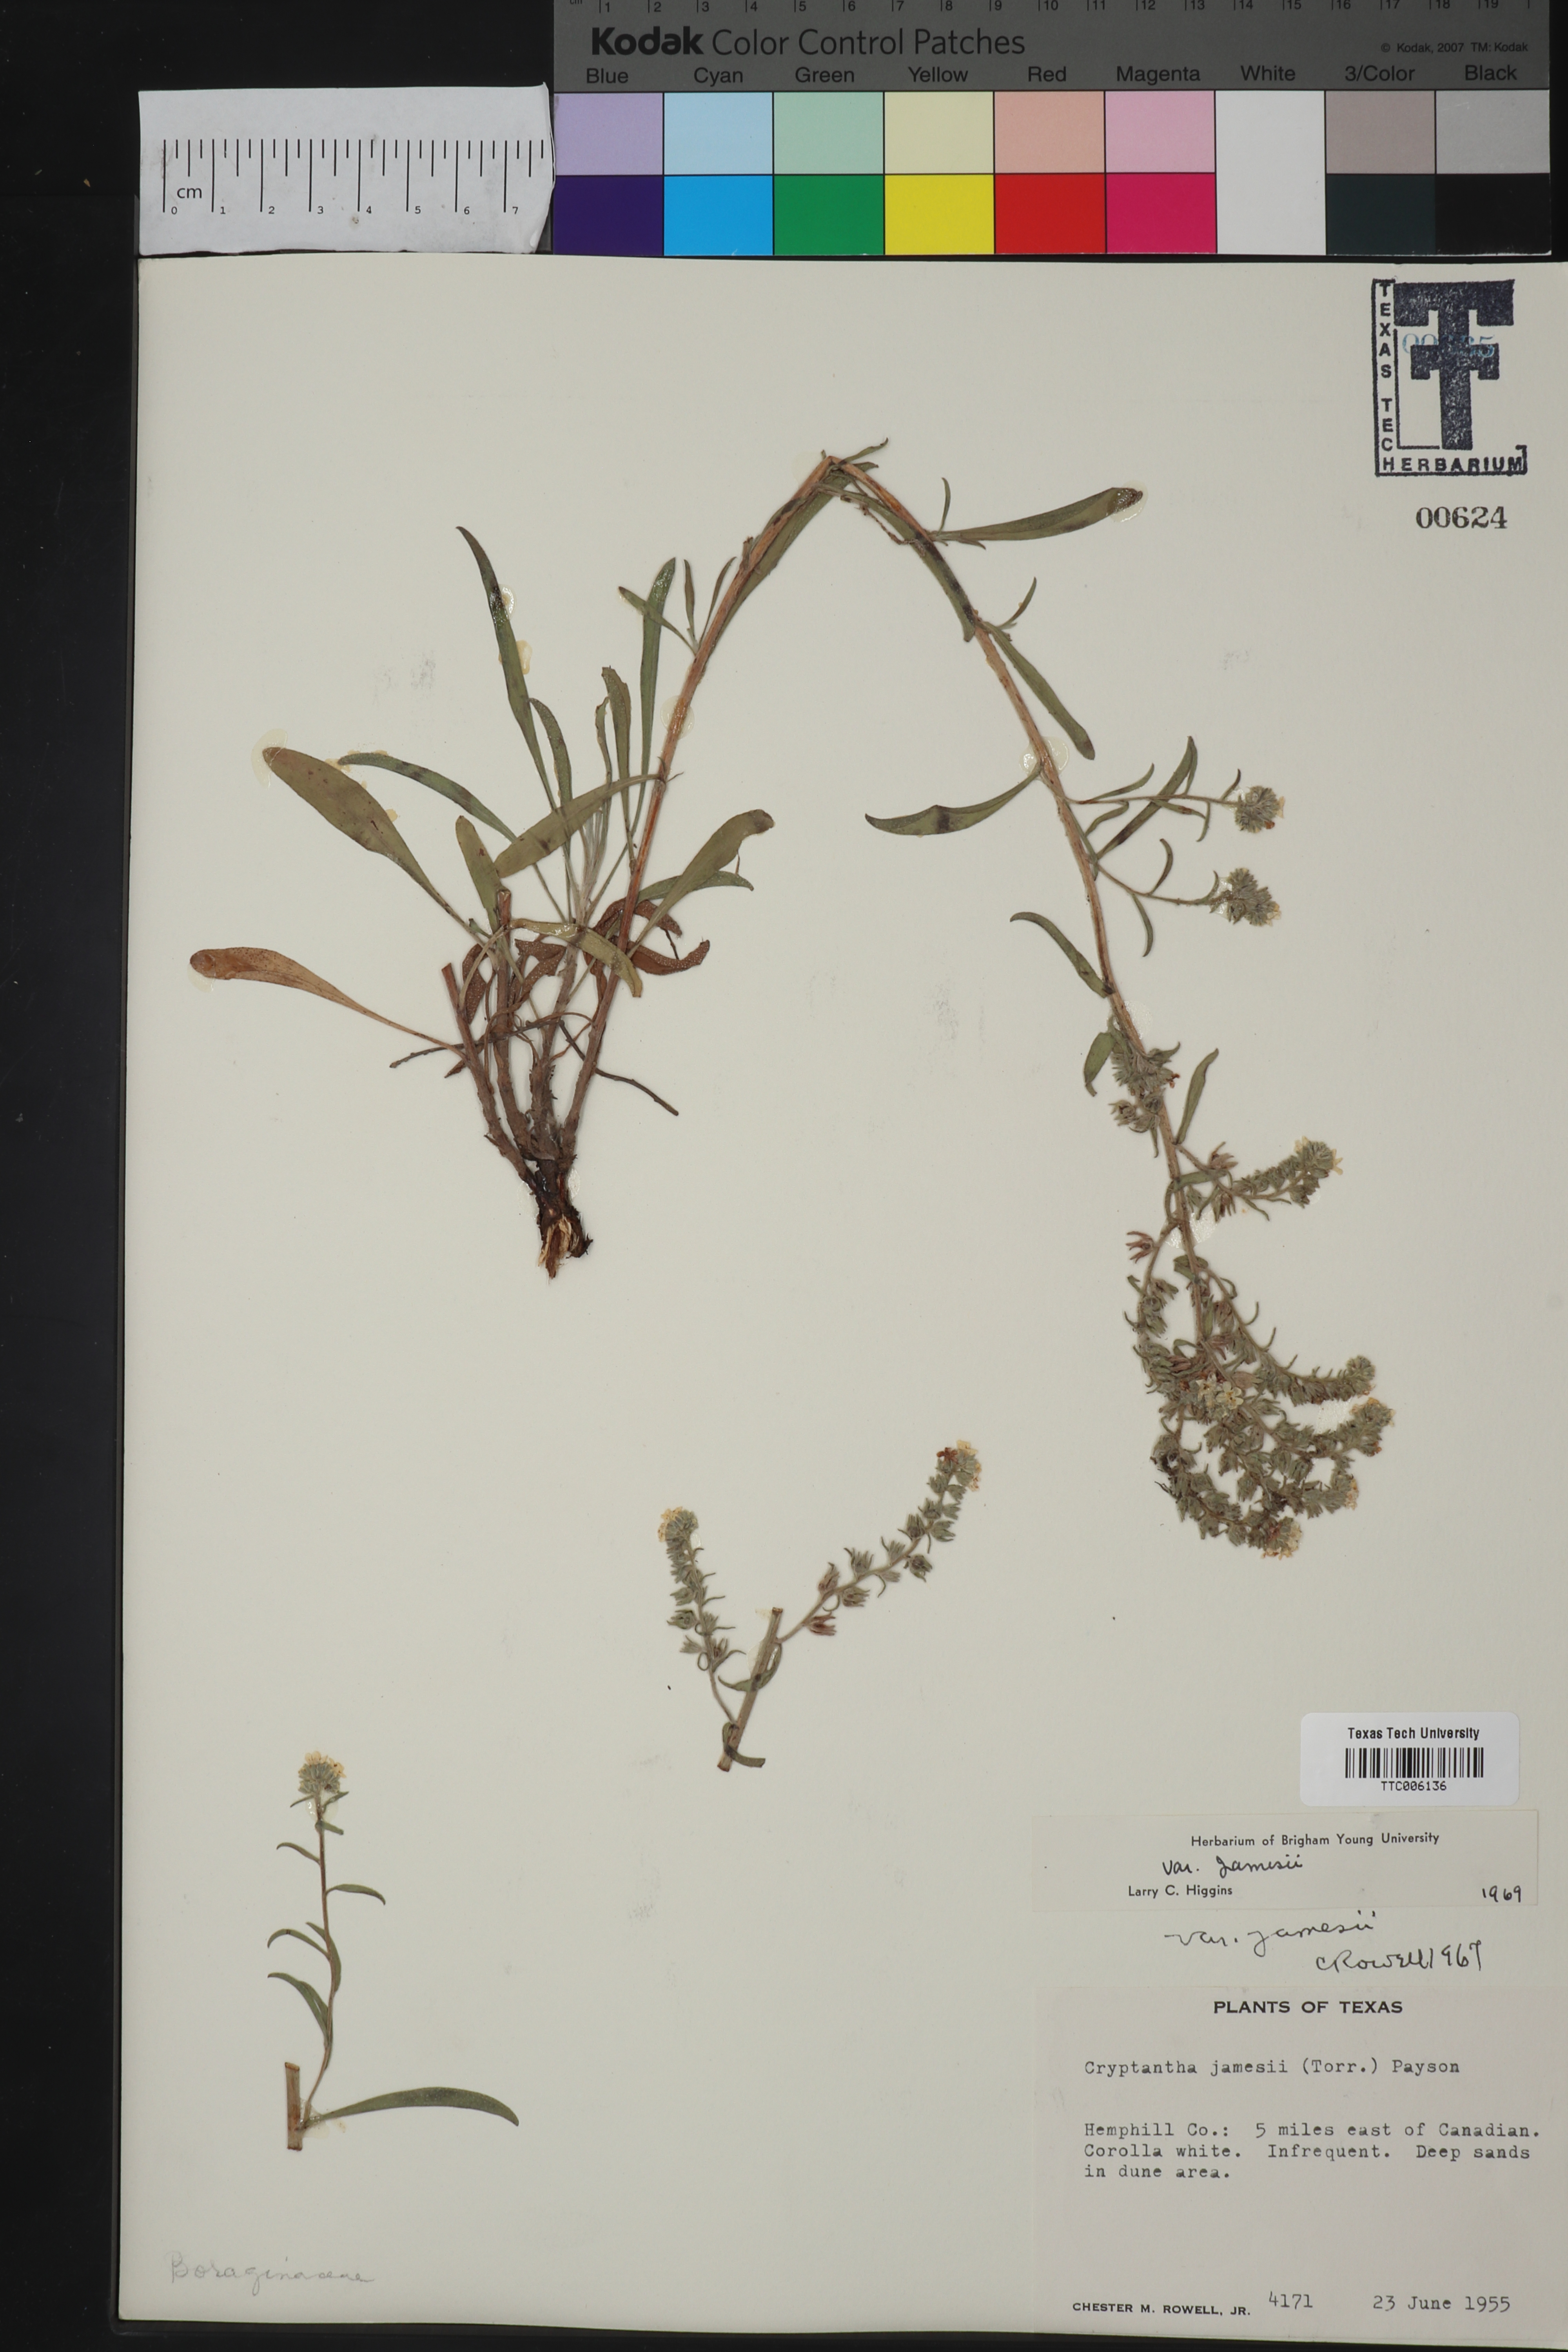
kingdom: Plantae
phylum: Tracheophyta
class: Magnoliopsida
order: Boraginales
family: Boraginaceae
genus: Oreocarya
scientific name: Oreocarya suffruticosa
